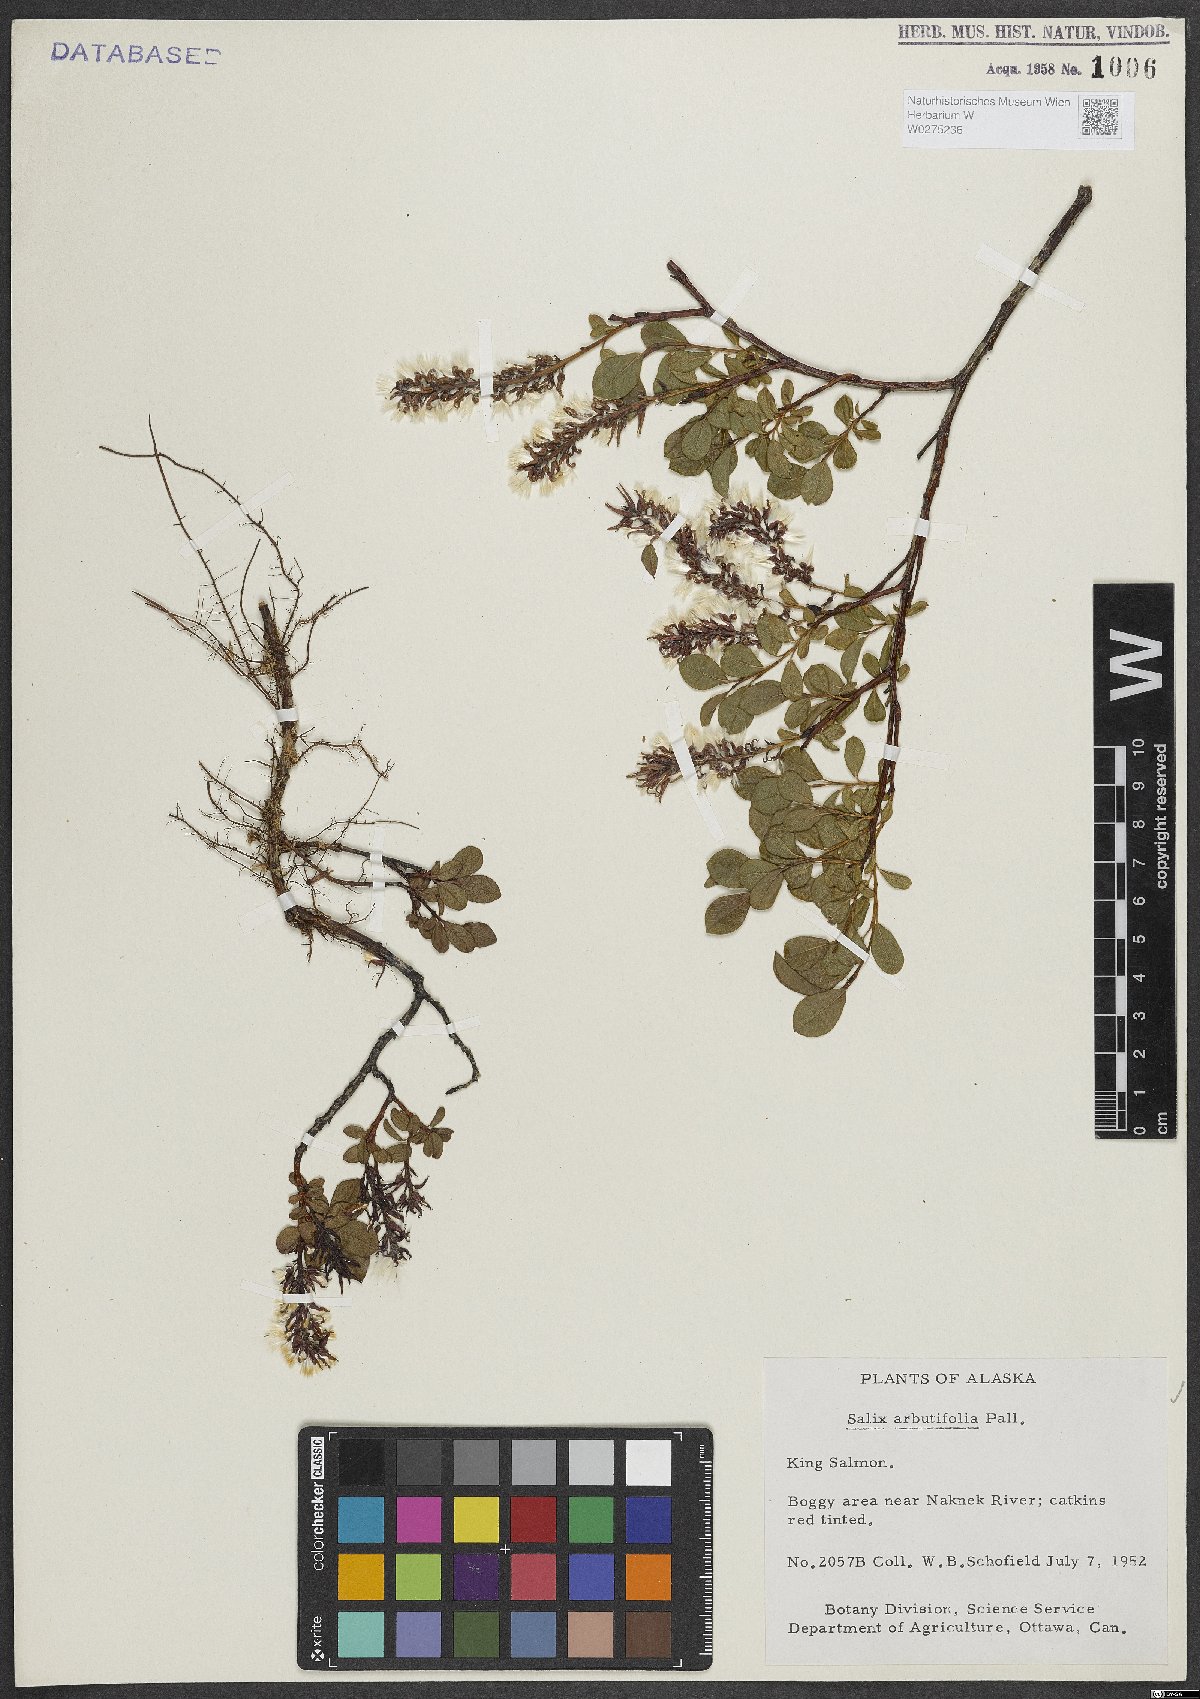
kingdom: Plantae
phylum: Tracheophyta
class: Magnoliopsida
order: Malpighiales
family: Salicaceae
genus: Chosenia
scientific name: Chosenia arbutifolia
